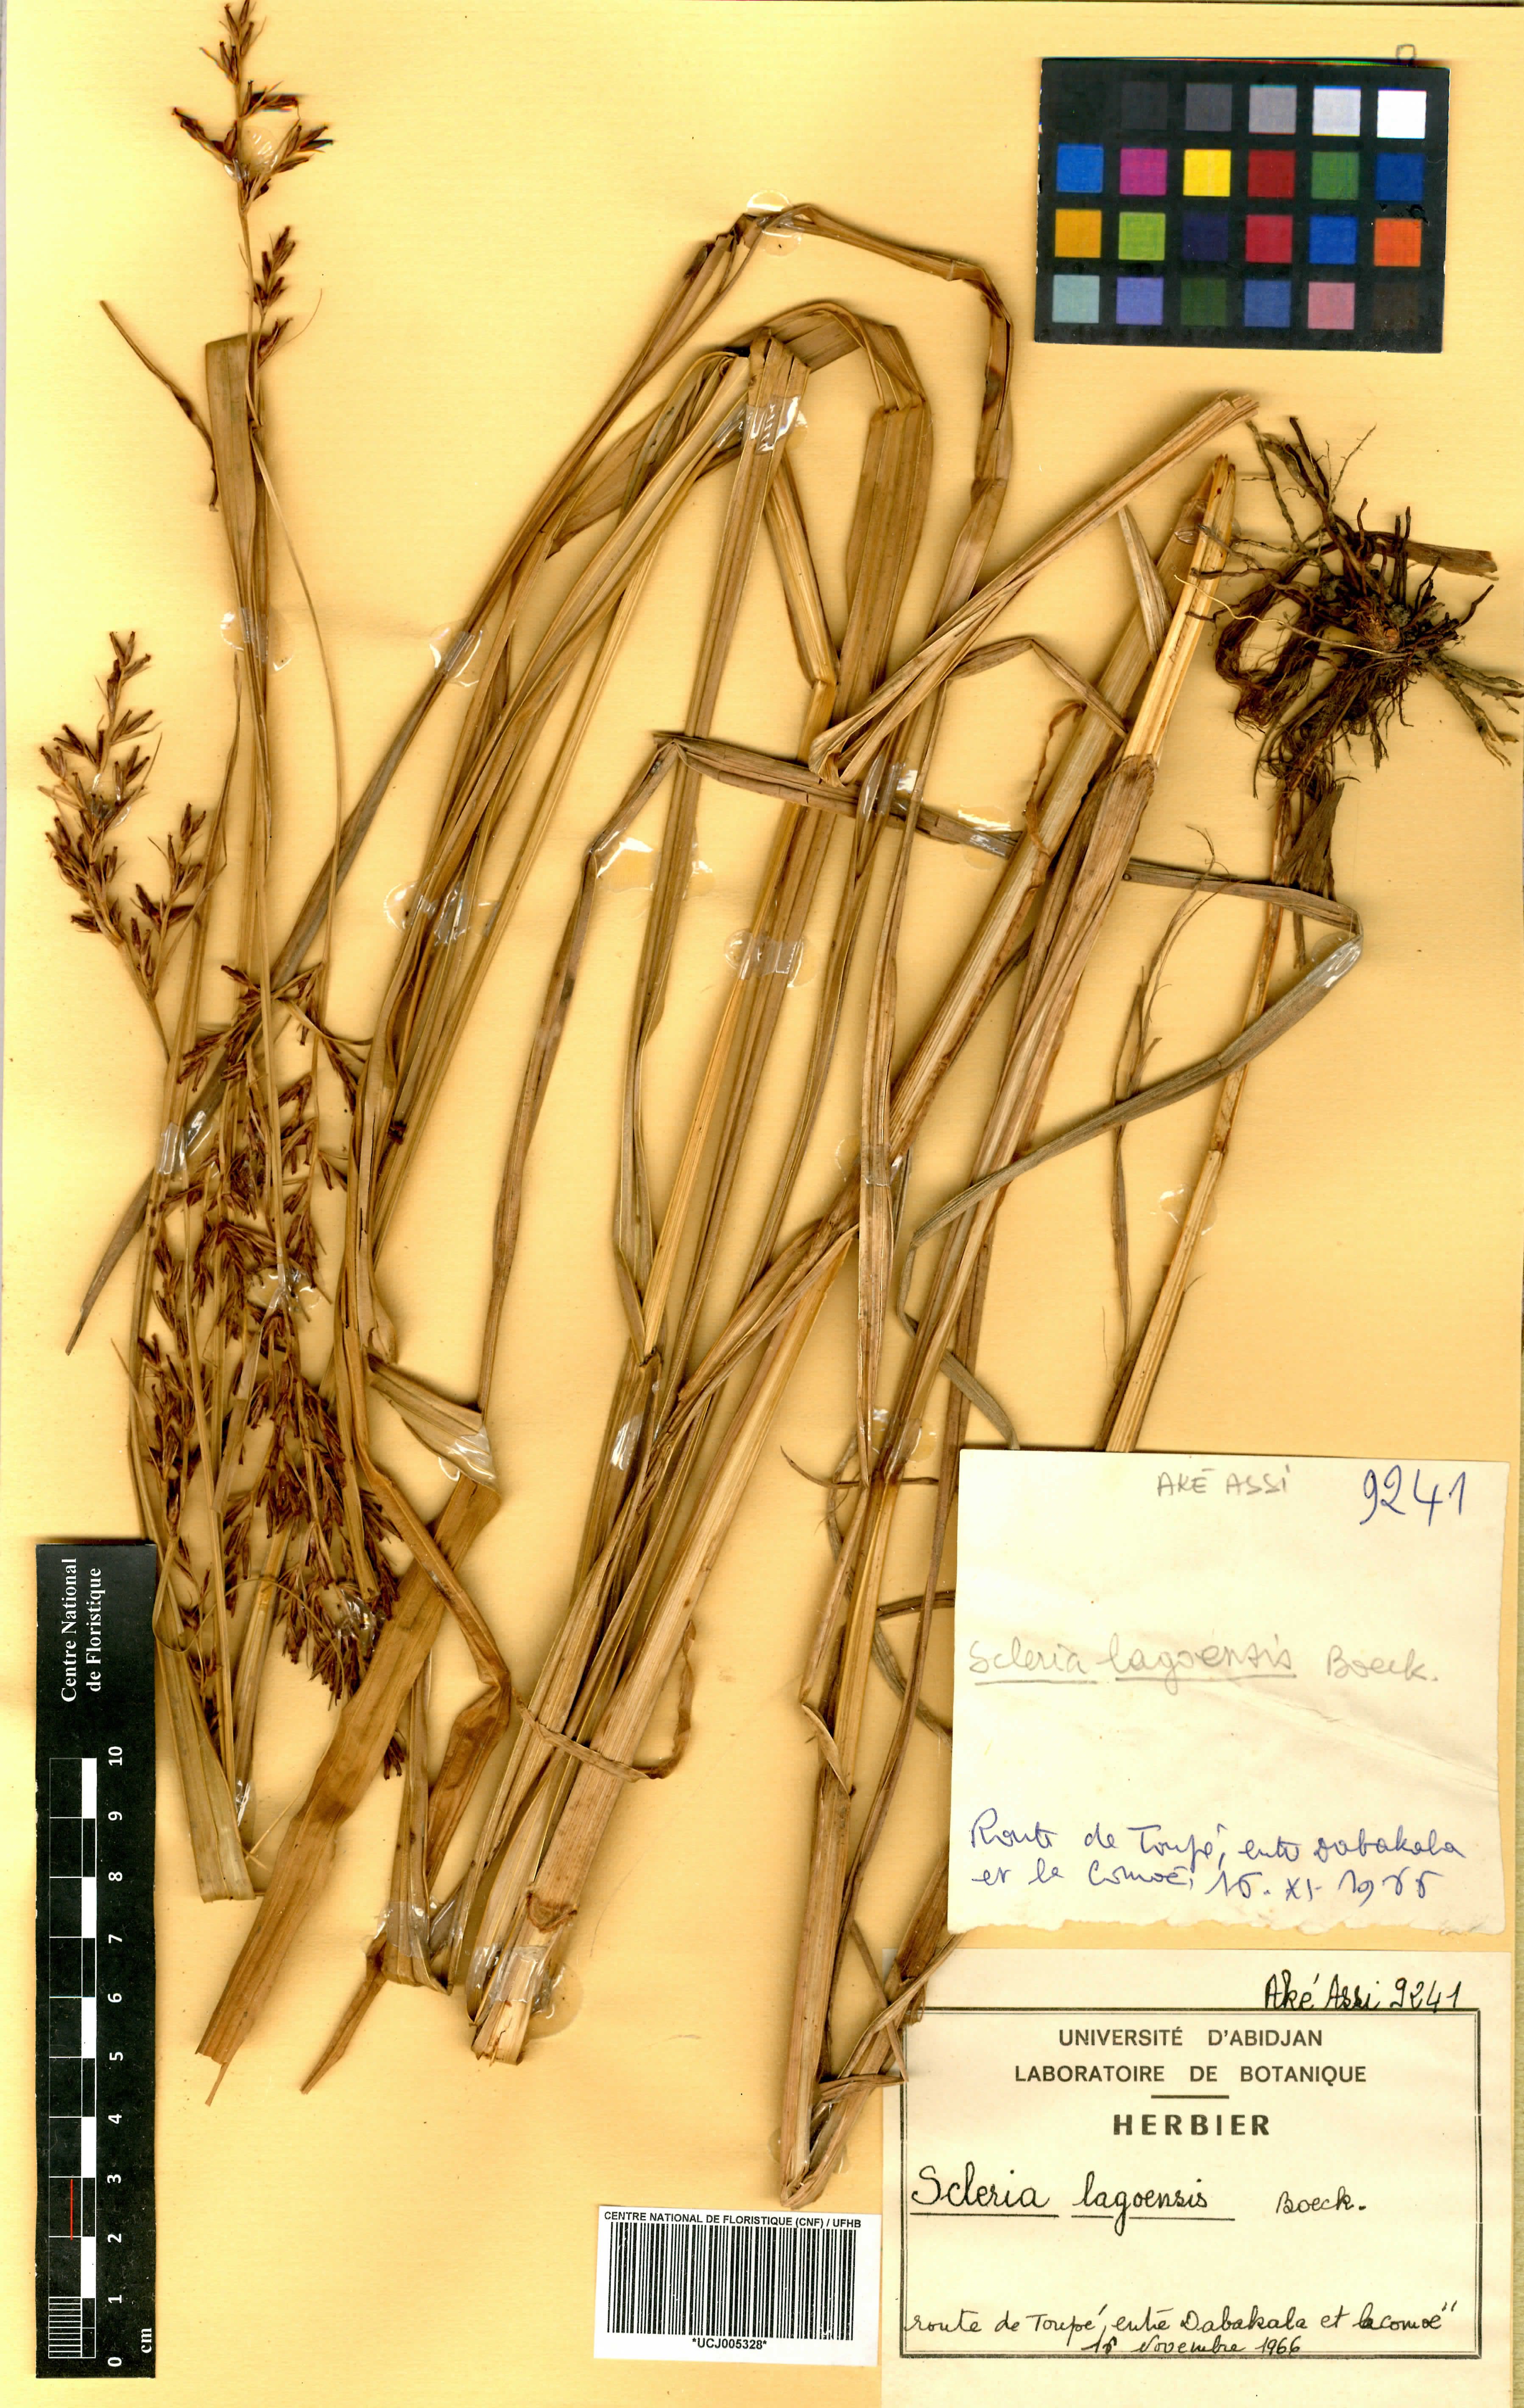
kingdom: Plantae
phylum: Tracheophyta
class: Liliopsida
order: Poales
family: Cyperaceae
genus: Scleria
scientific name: Scleria lagoensis
